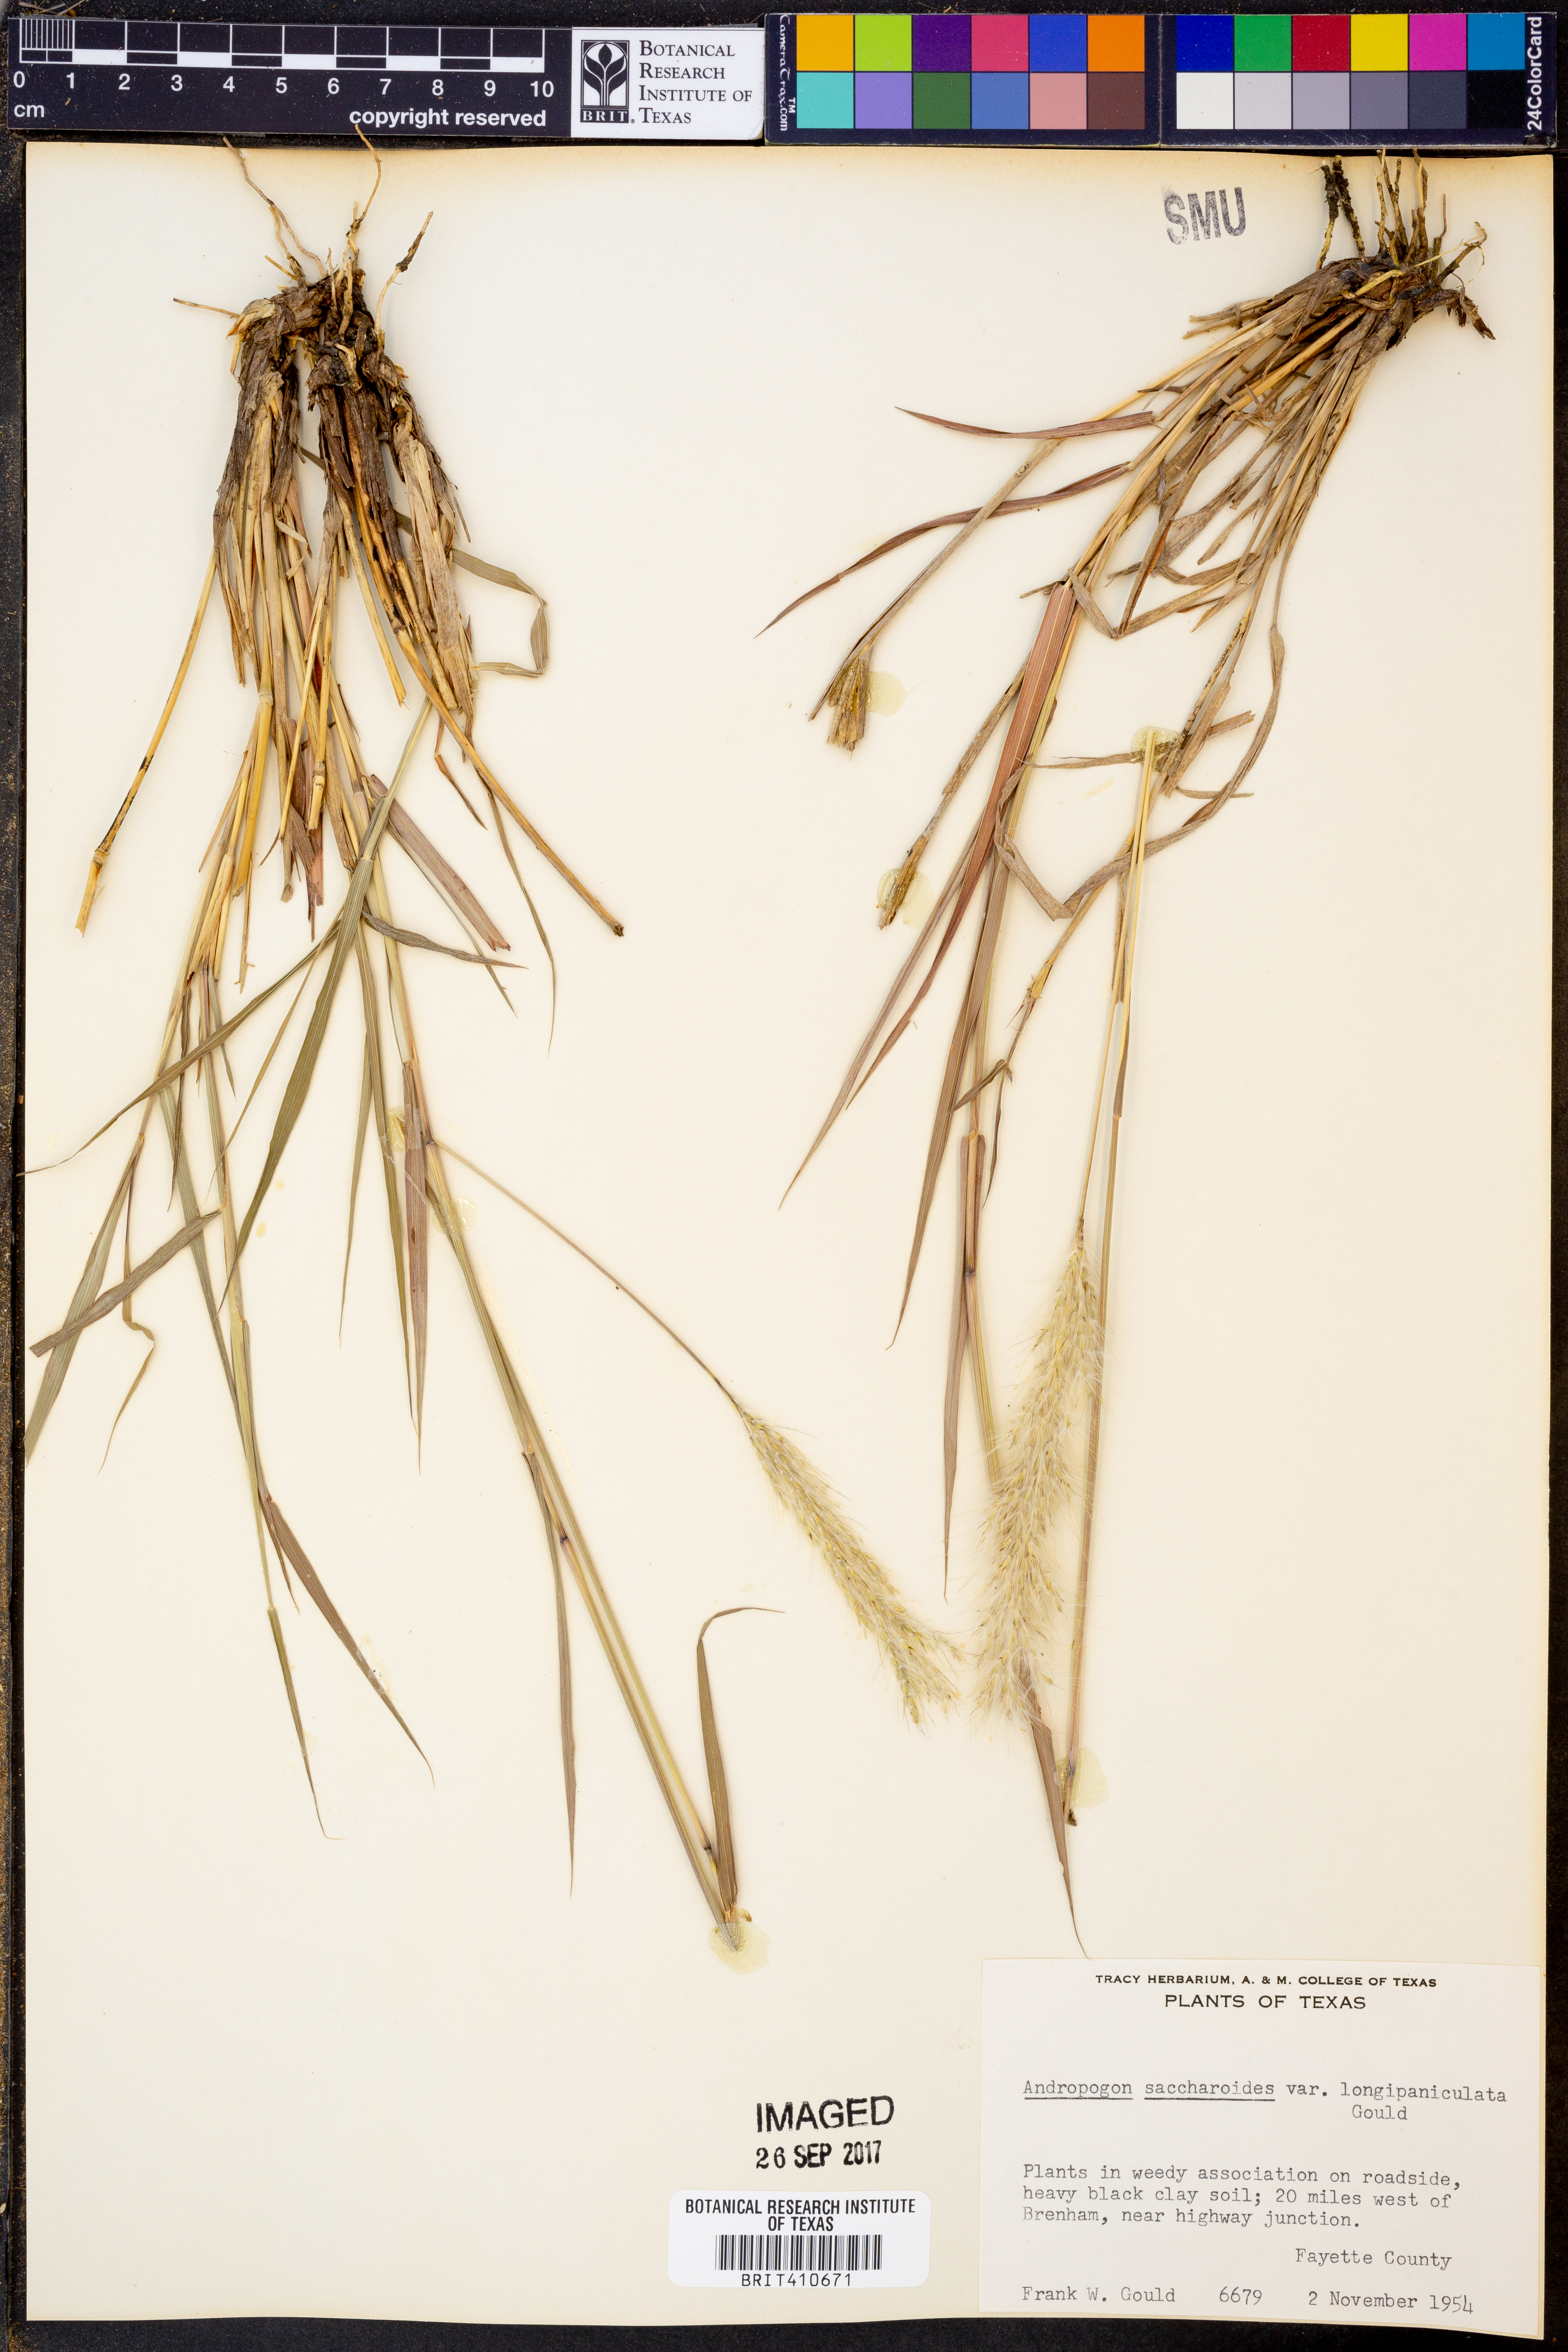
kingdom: Plantae
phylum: Tracheophyta
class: Liliopsida
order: Poales
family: Poaceae
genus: Bothriochloa
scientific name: Bothriochloa longipaniculata
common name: Longspike silver bluestem
